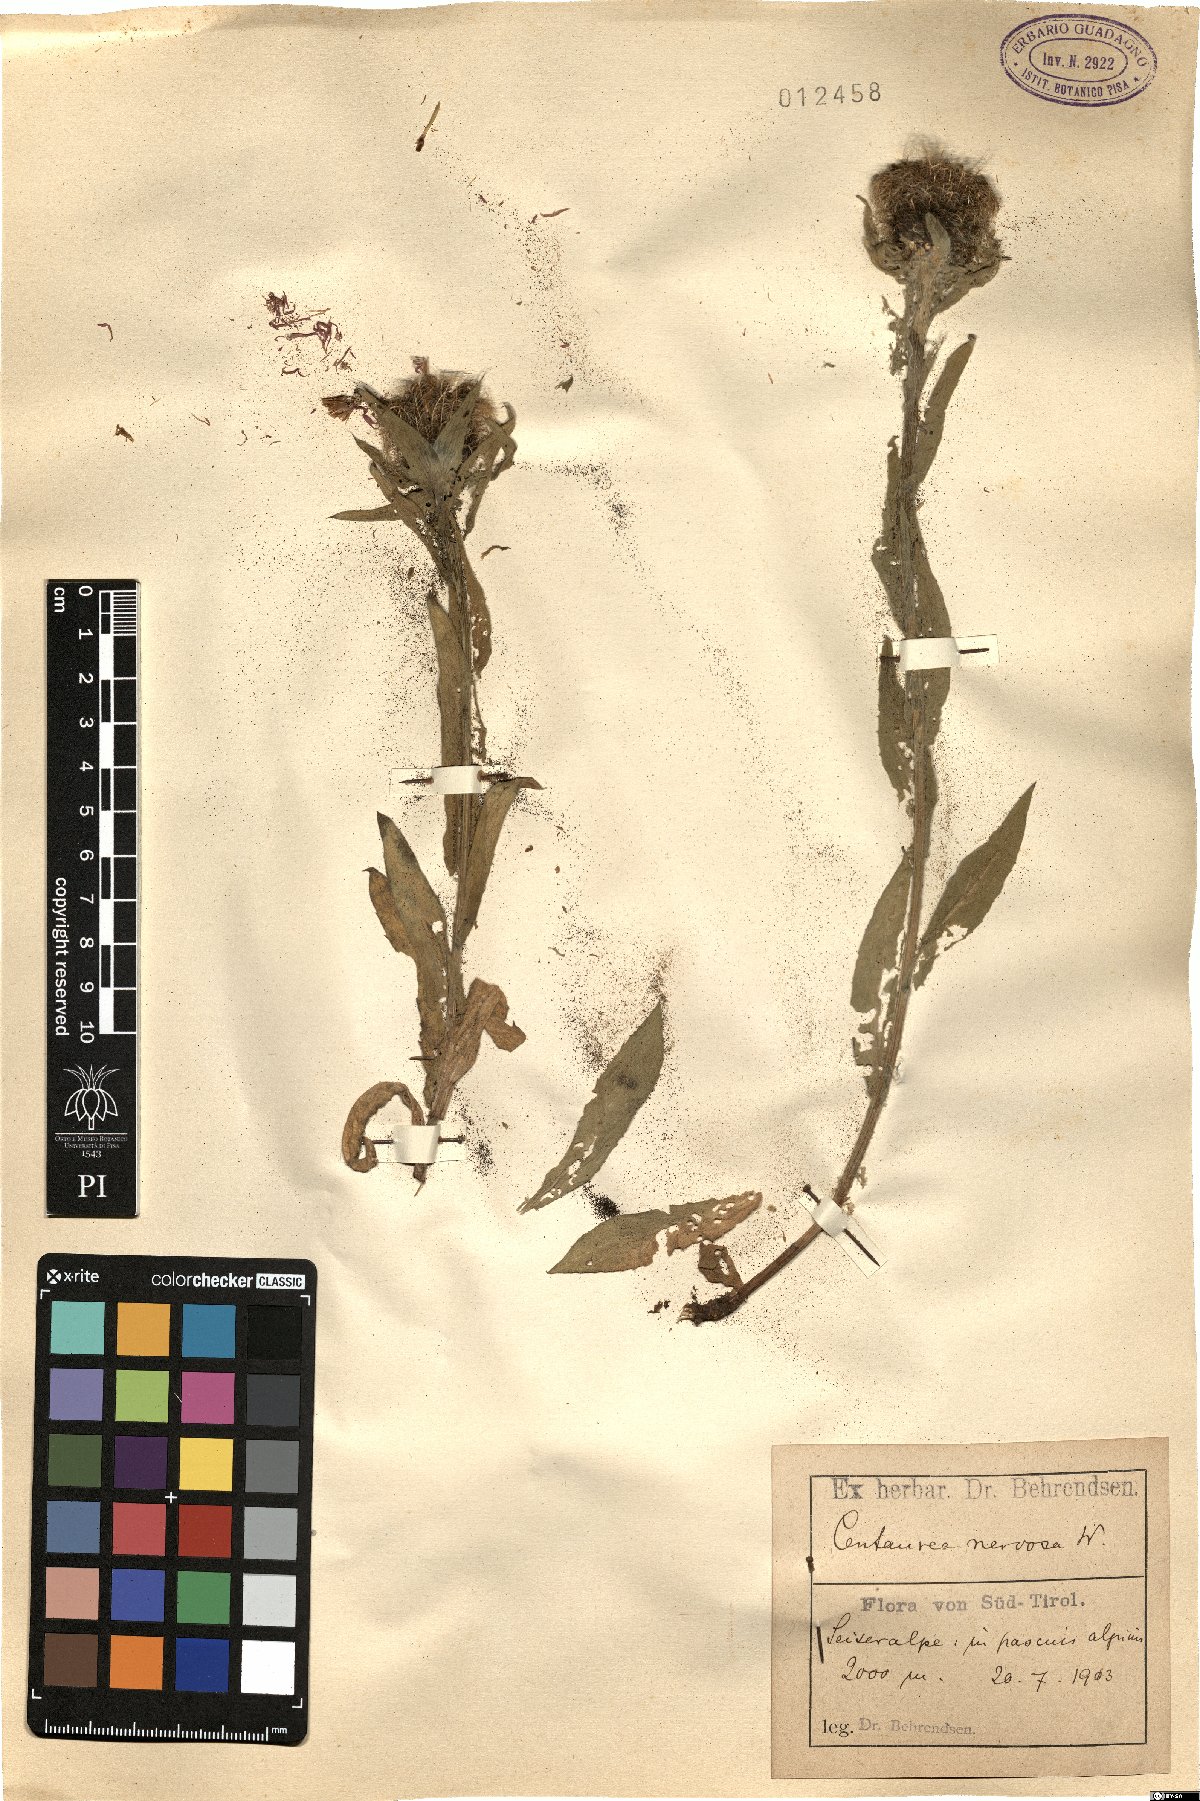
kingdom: Plantae
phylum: Tracheophyta
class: Magnoliopsida
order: Asterales
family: Asteraceae
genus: Centaurea
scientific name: Centaurea nervosa
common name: Singleflower knapweed
